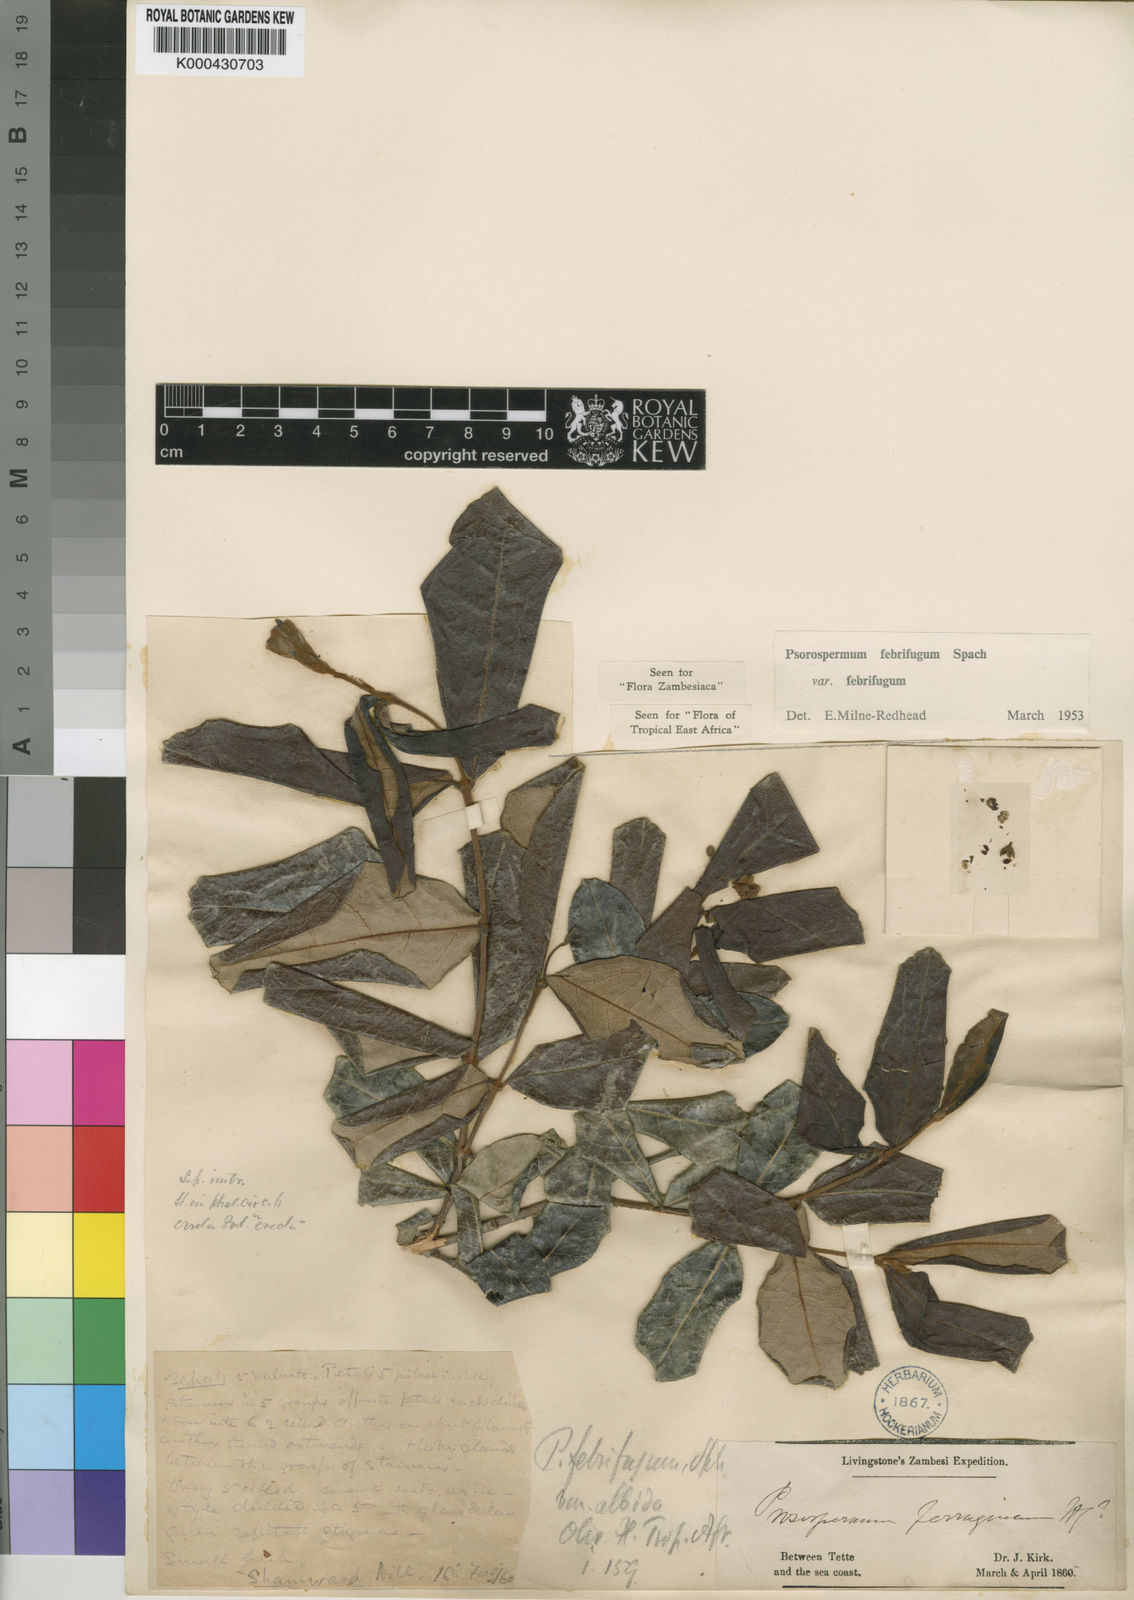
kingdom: Plantae
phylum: Tracheophyta
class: Magnoliopsida
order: Malpighiales
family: Hypericaceae
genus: Psorospermum
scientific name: Psorospermum febrifugum
